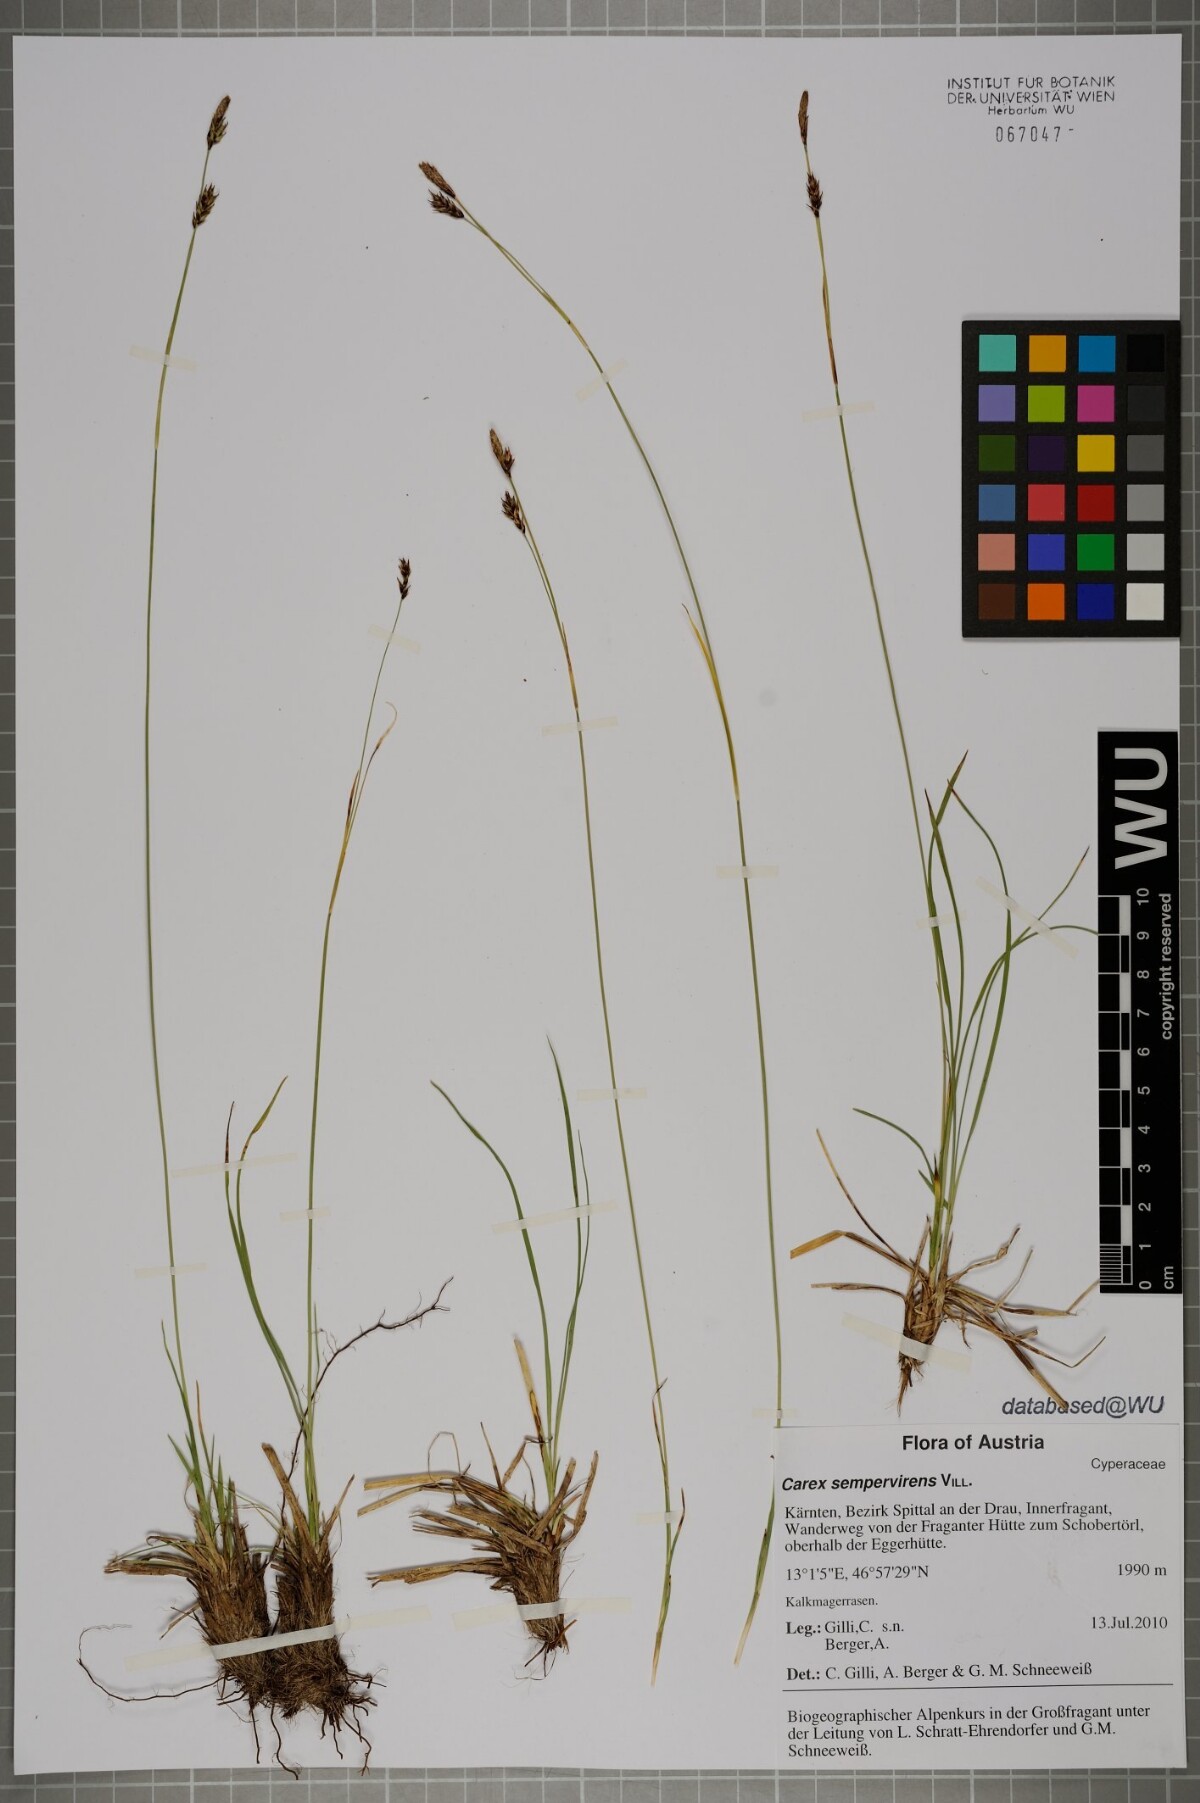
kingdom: Plantae
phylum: Tracheophyta
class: Liliopsida
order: Poales
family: Cyperaceae
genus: Carex
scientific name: Carex sempervirens
